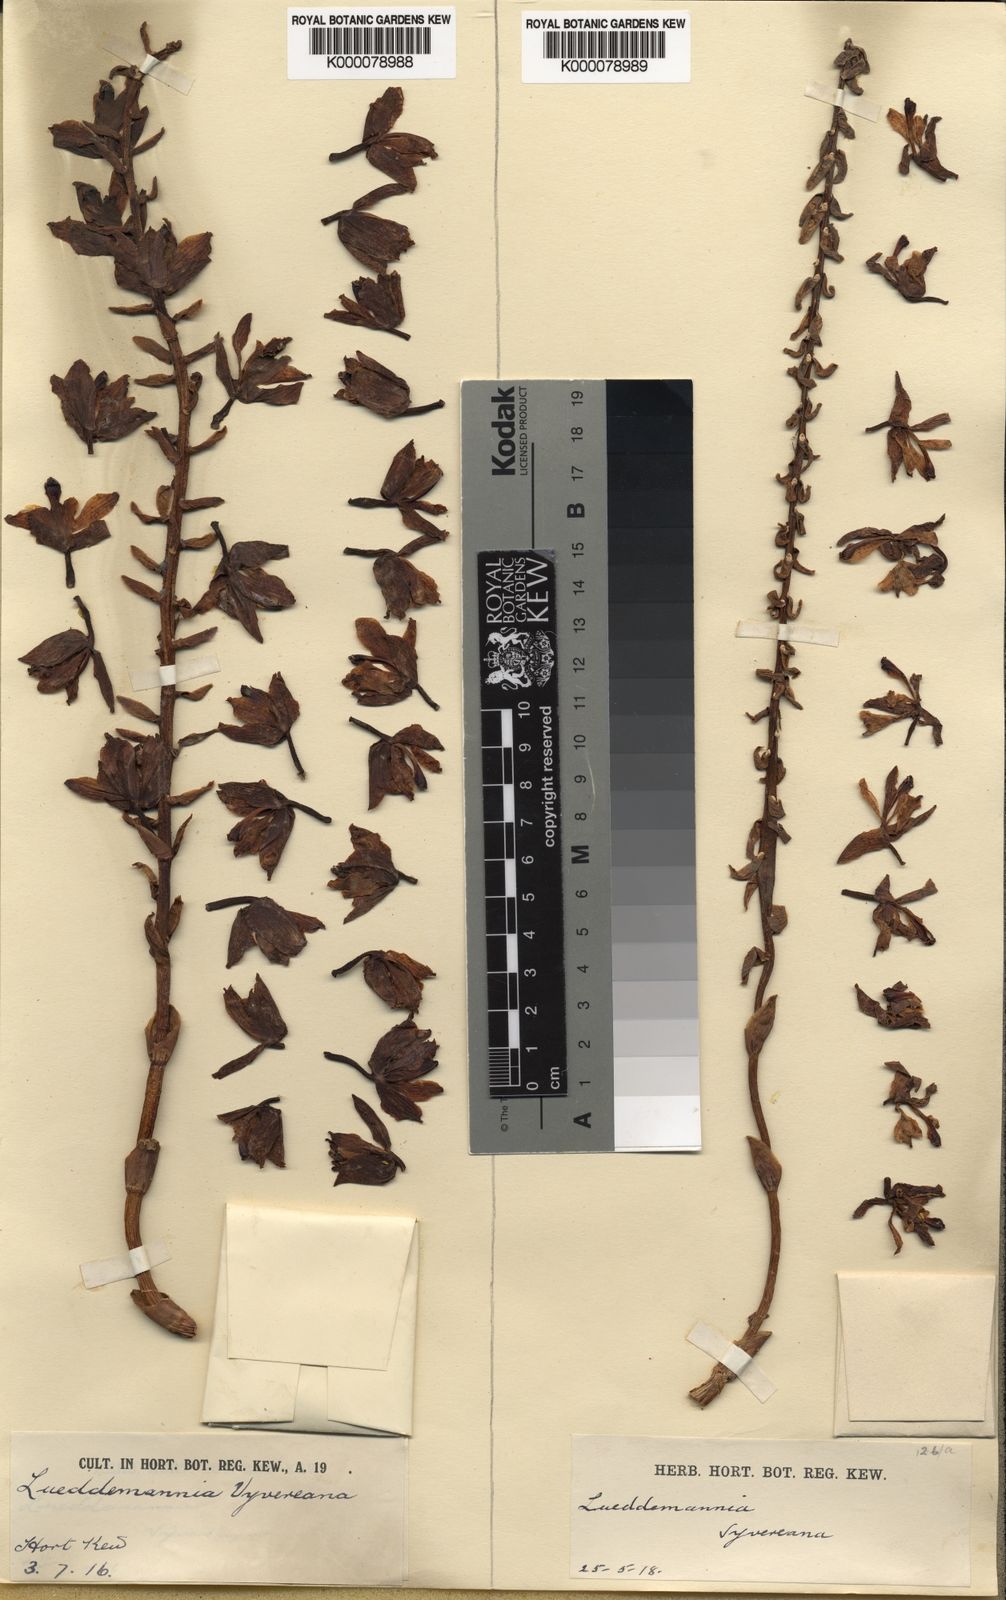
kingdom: Plantae
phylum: Tracheophyta
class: Liliopsida
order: Asparagales
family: Orchidaceae
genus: Lueddemannia
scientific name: Lueddemannia pescatorei
